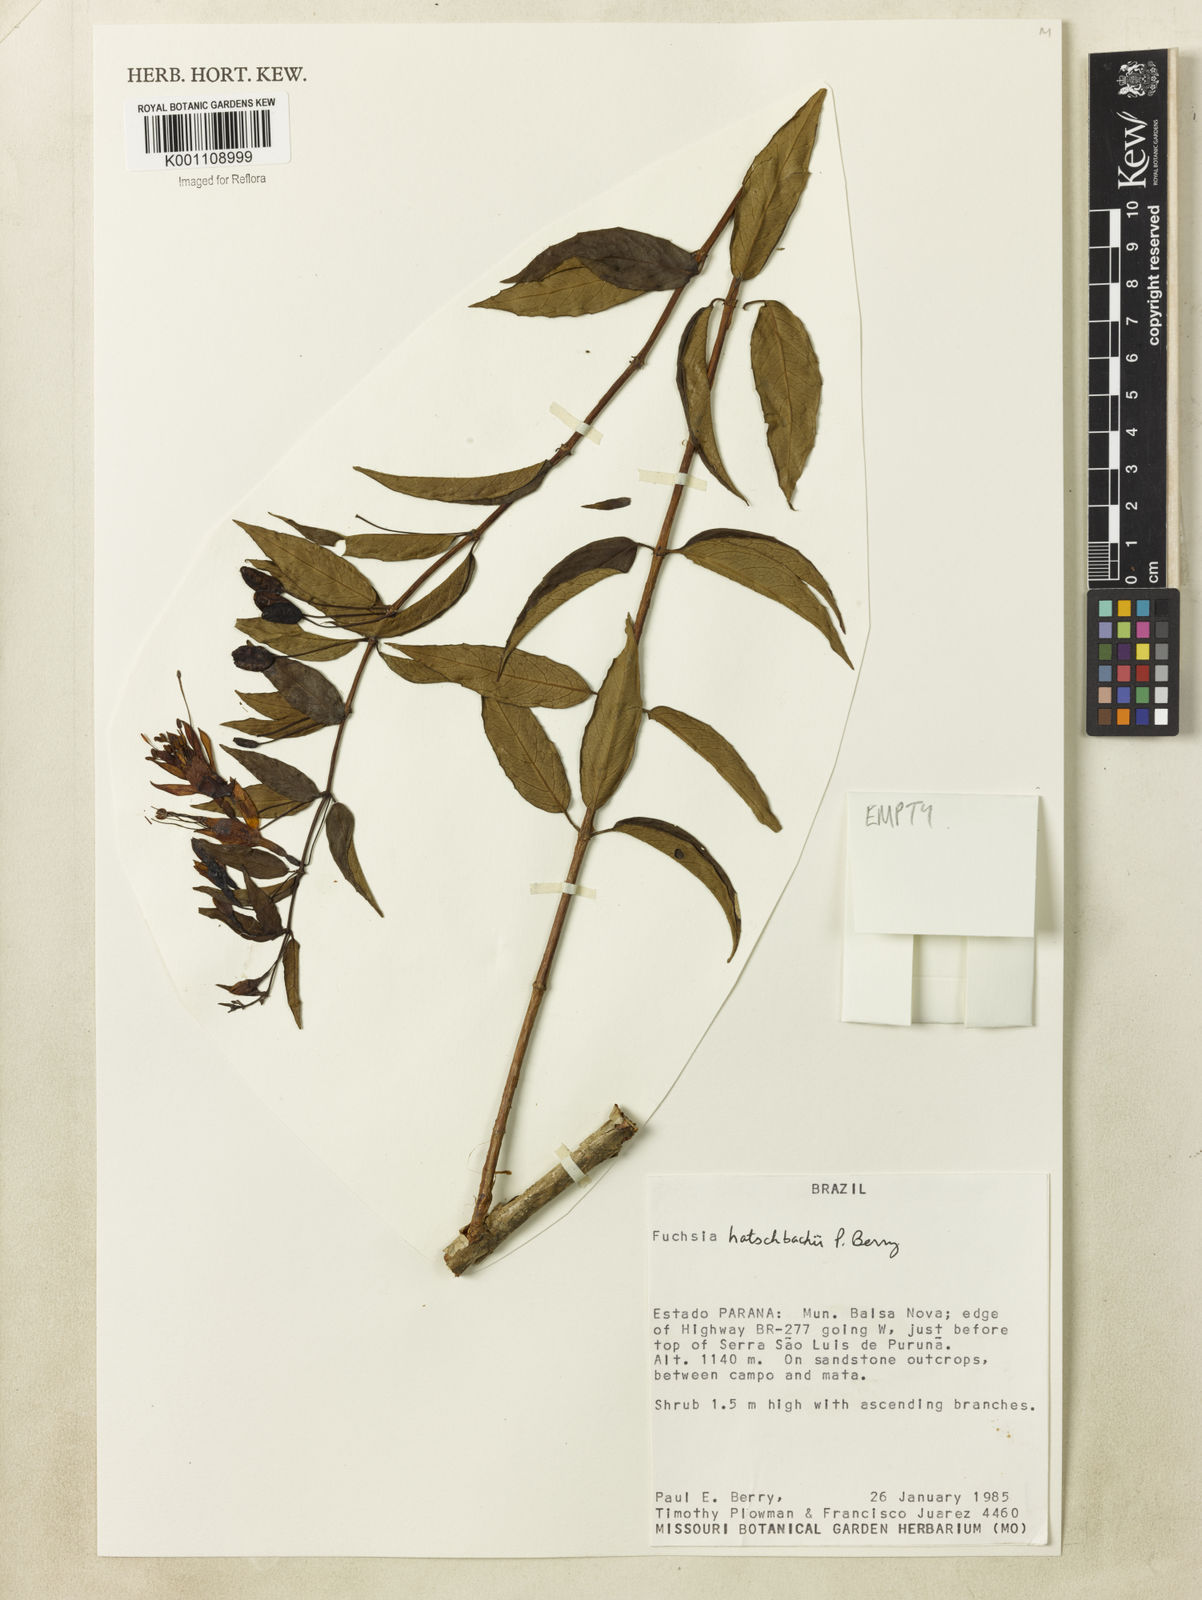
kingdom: Plantae
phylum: Tracheophyta
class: Magnoliopsida
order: Myrtales
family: Onagraceae
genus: Fuchsia
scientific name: Fuchsia hatschbachii
